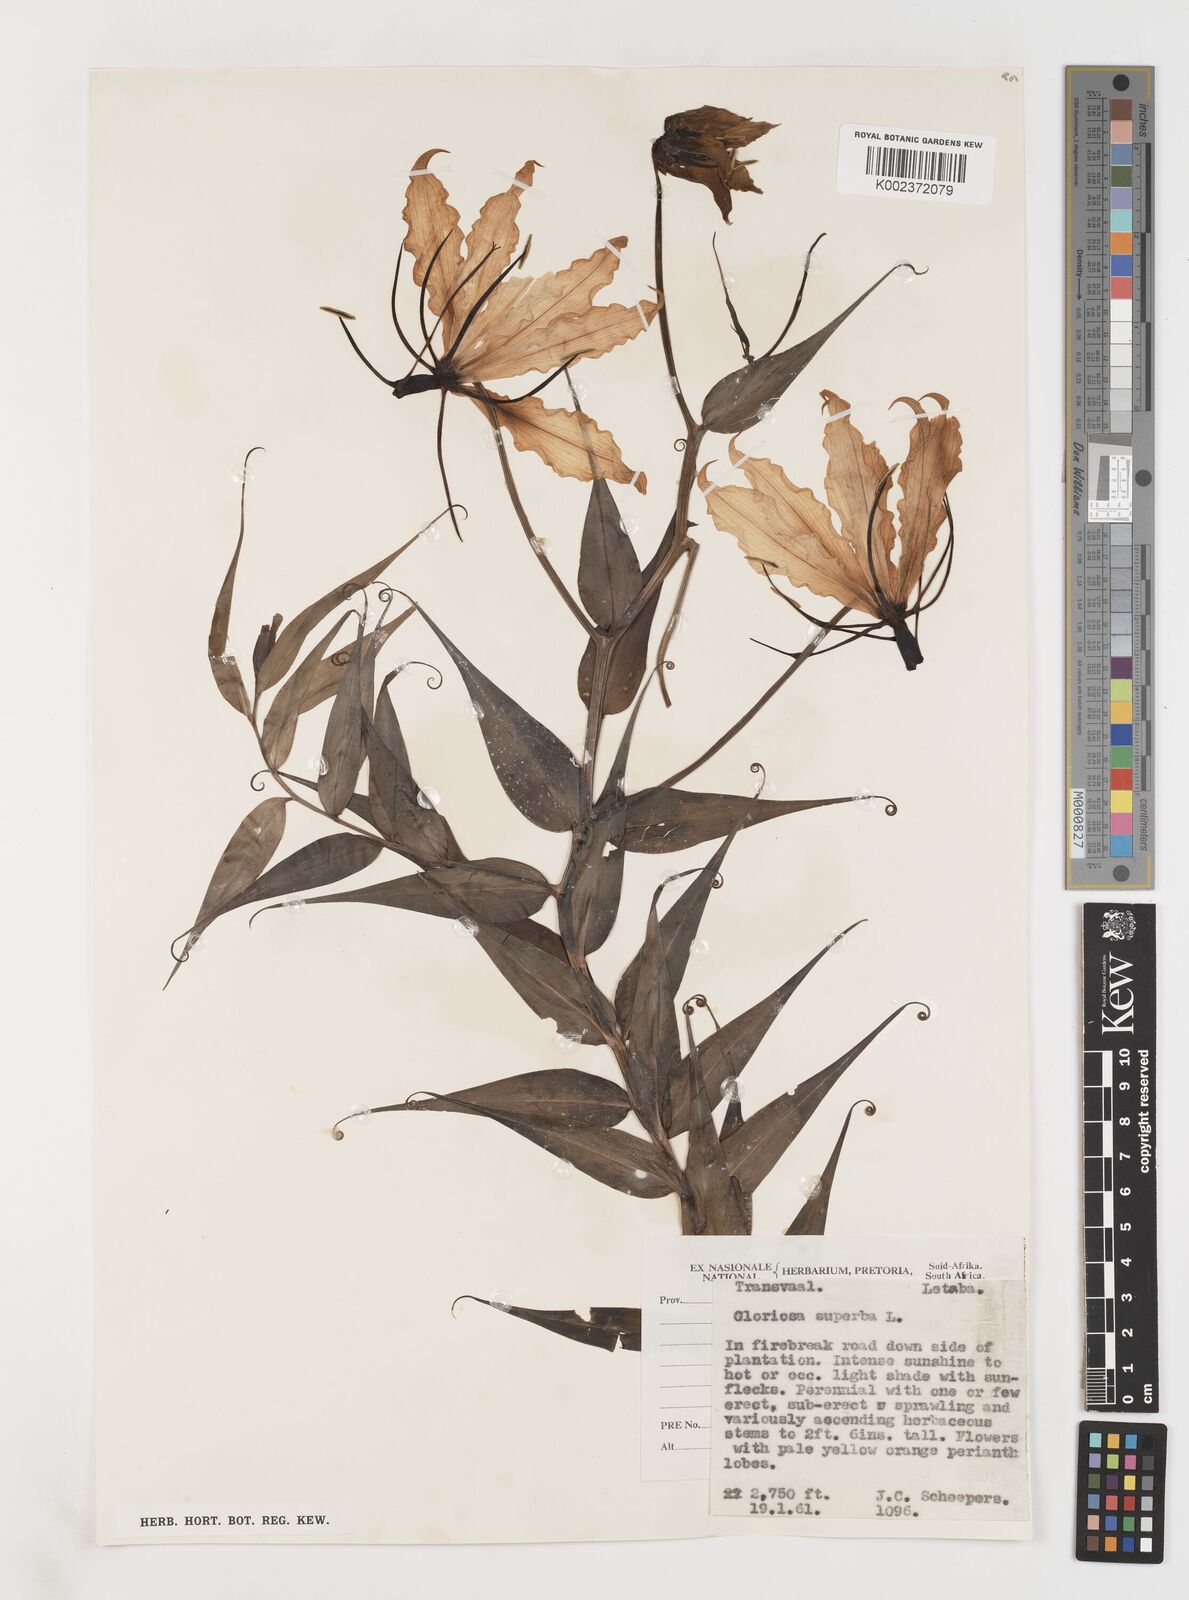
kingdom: Plantae
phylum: Tracheophyta
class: Liliopsida
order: Liliales
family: Colchicaceae
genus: Gloriosa
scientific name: Gloriosa simplex
